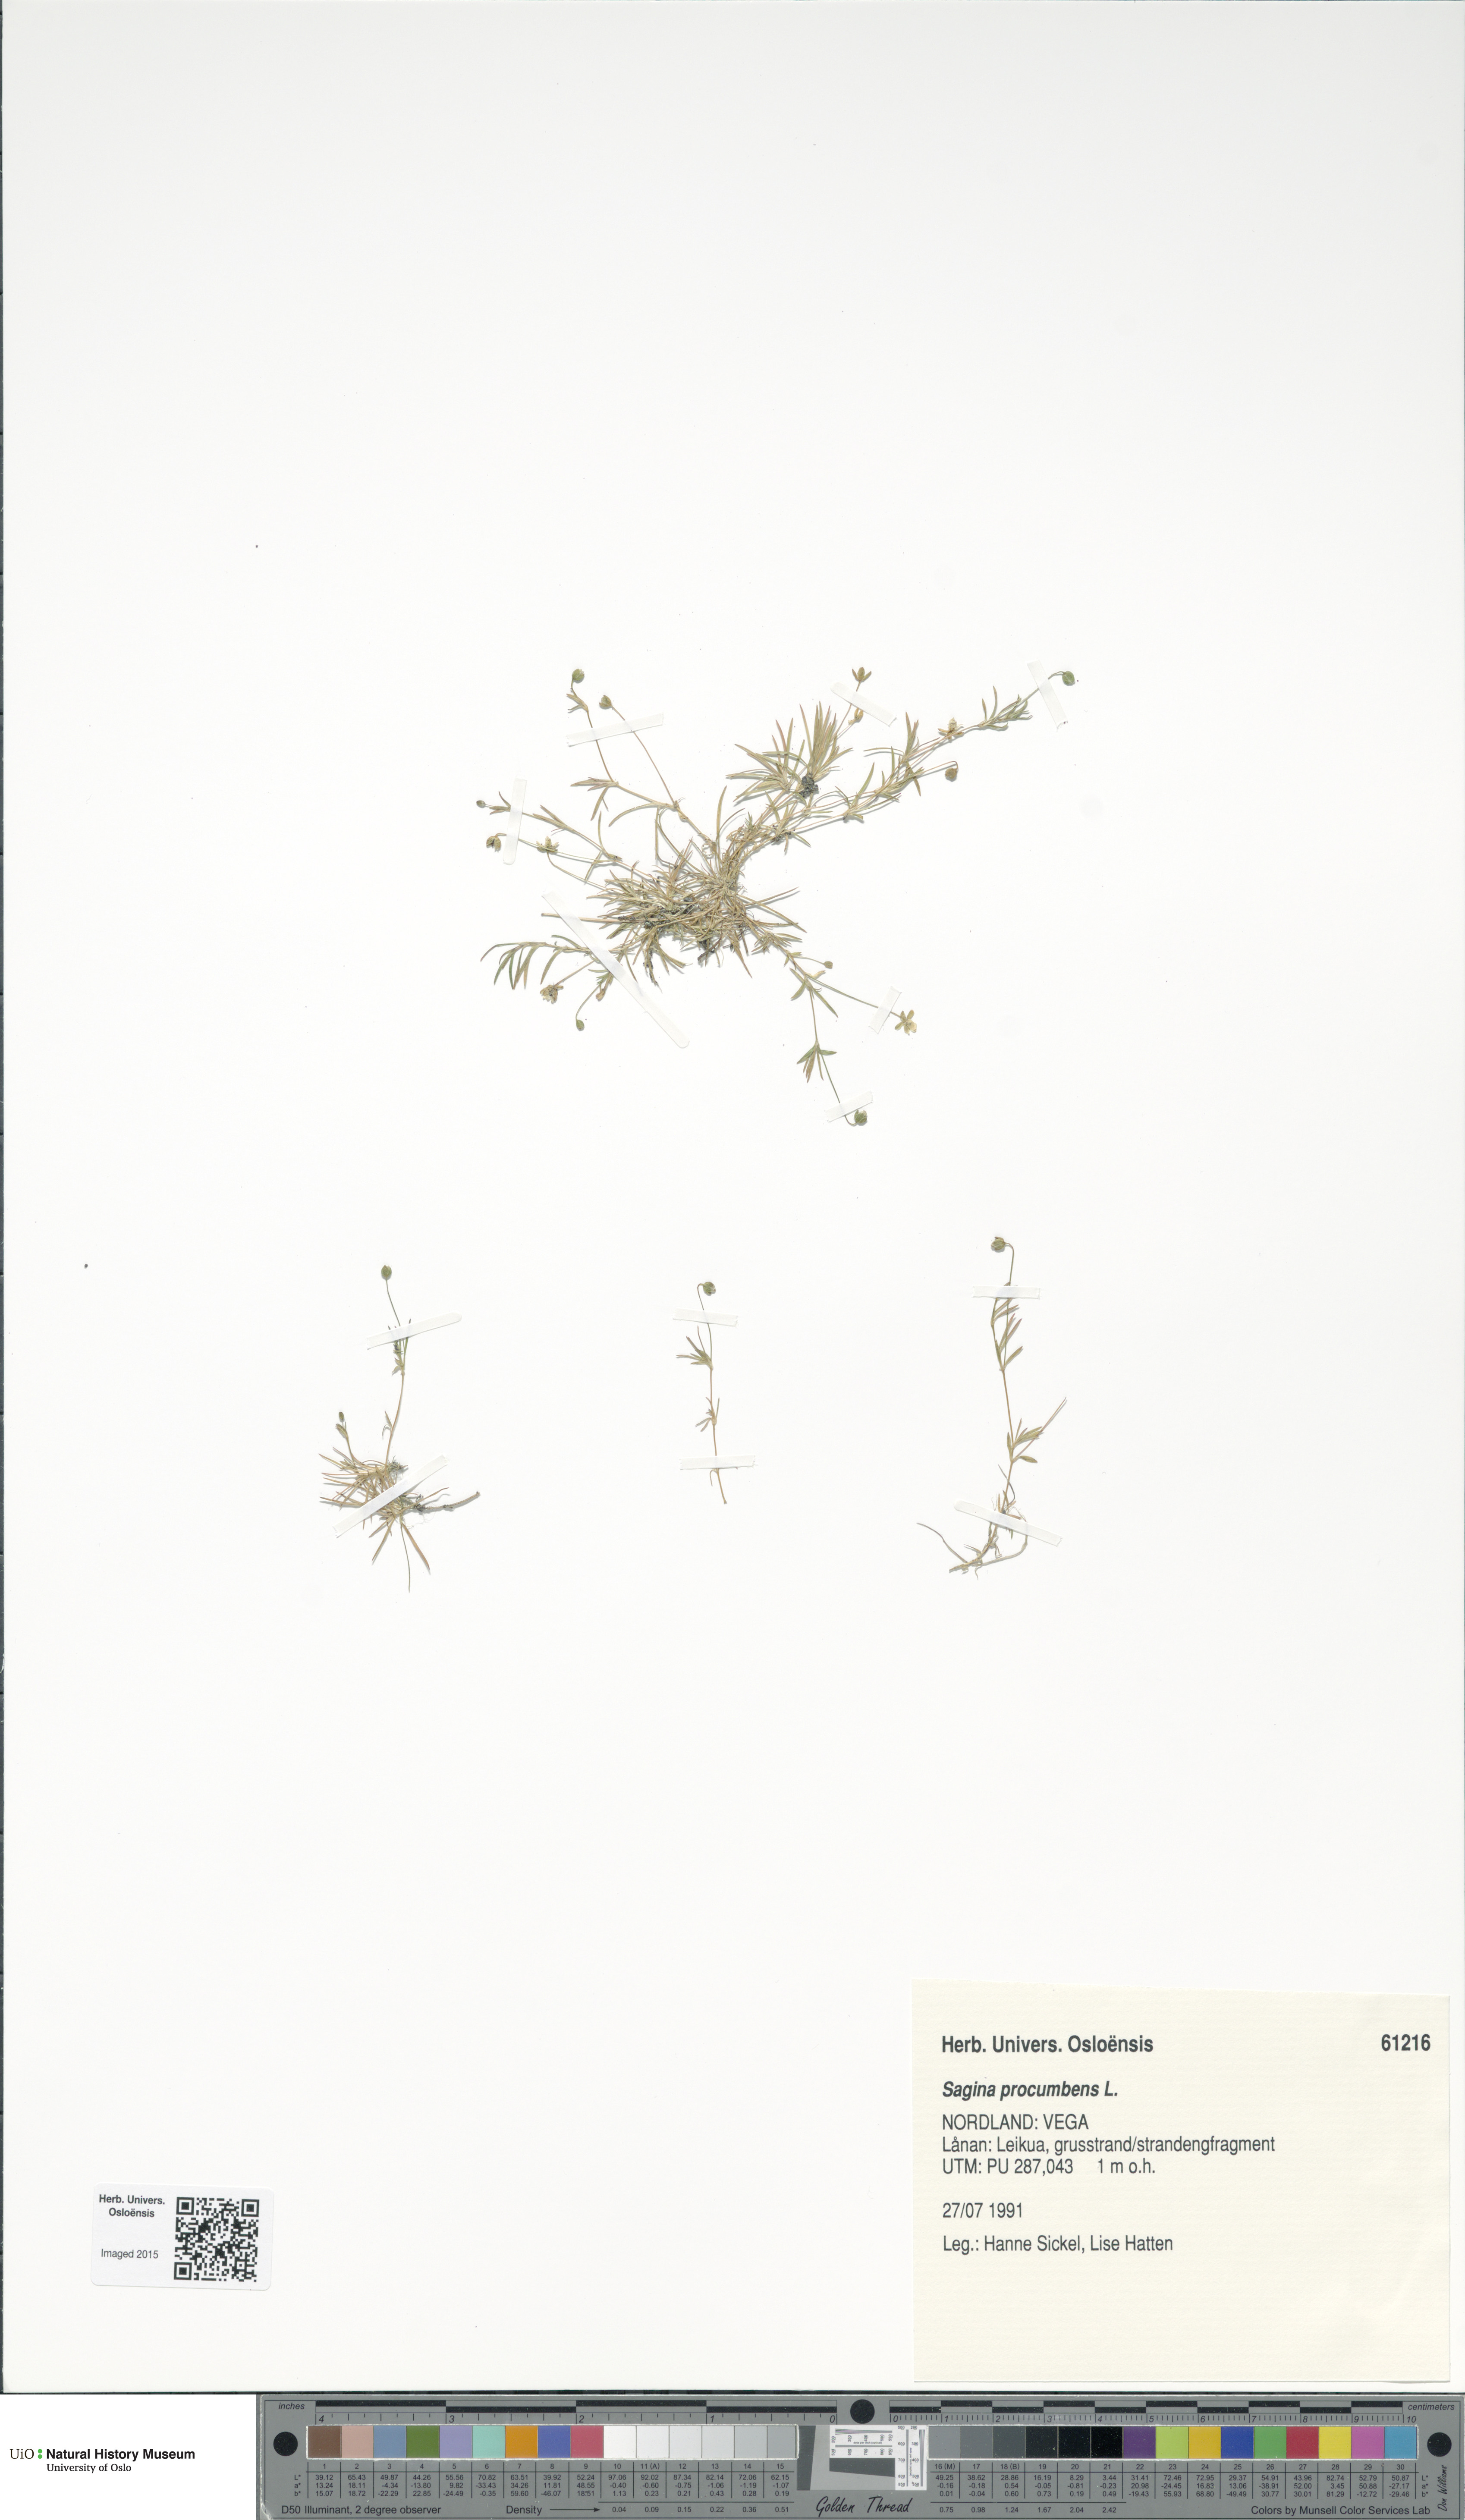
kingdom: Plantae
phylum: Tracheophyta
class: Magnoliopsida
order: Caryophyllales
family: Caryophyllaceae
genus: Sagina
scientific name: Sagina procumbens
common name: Procumbent pearlwort
